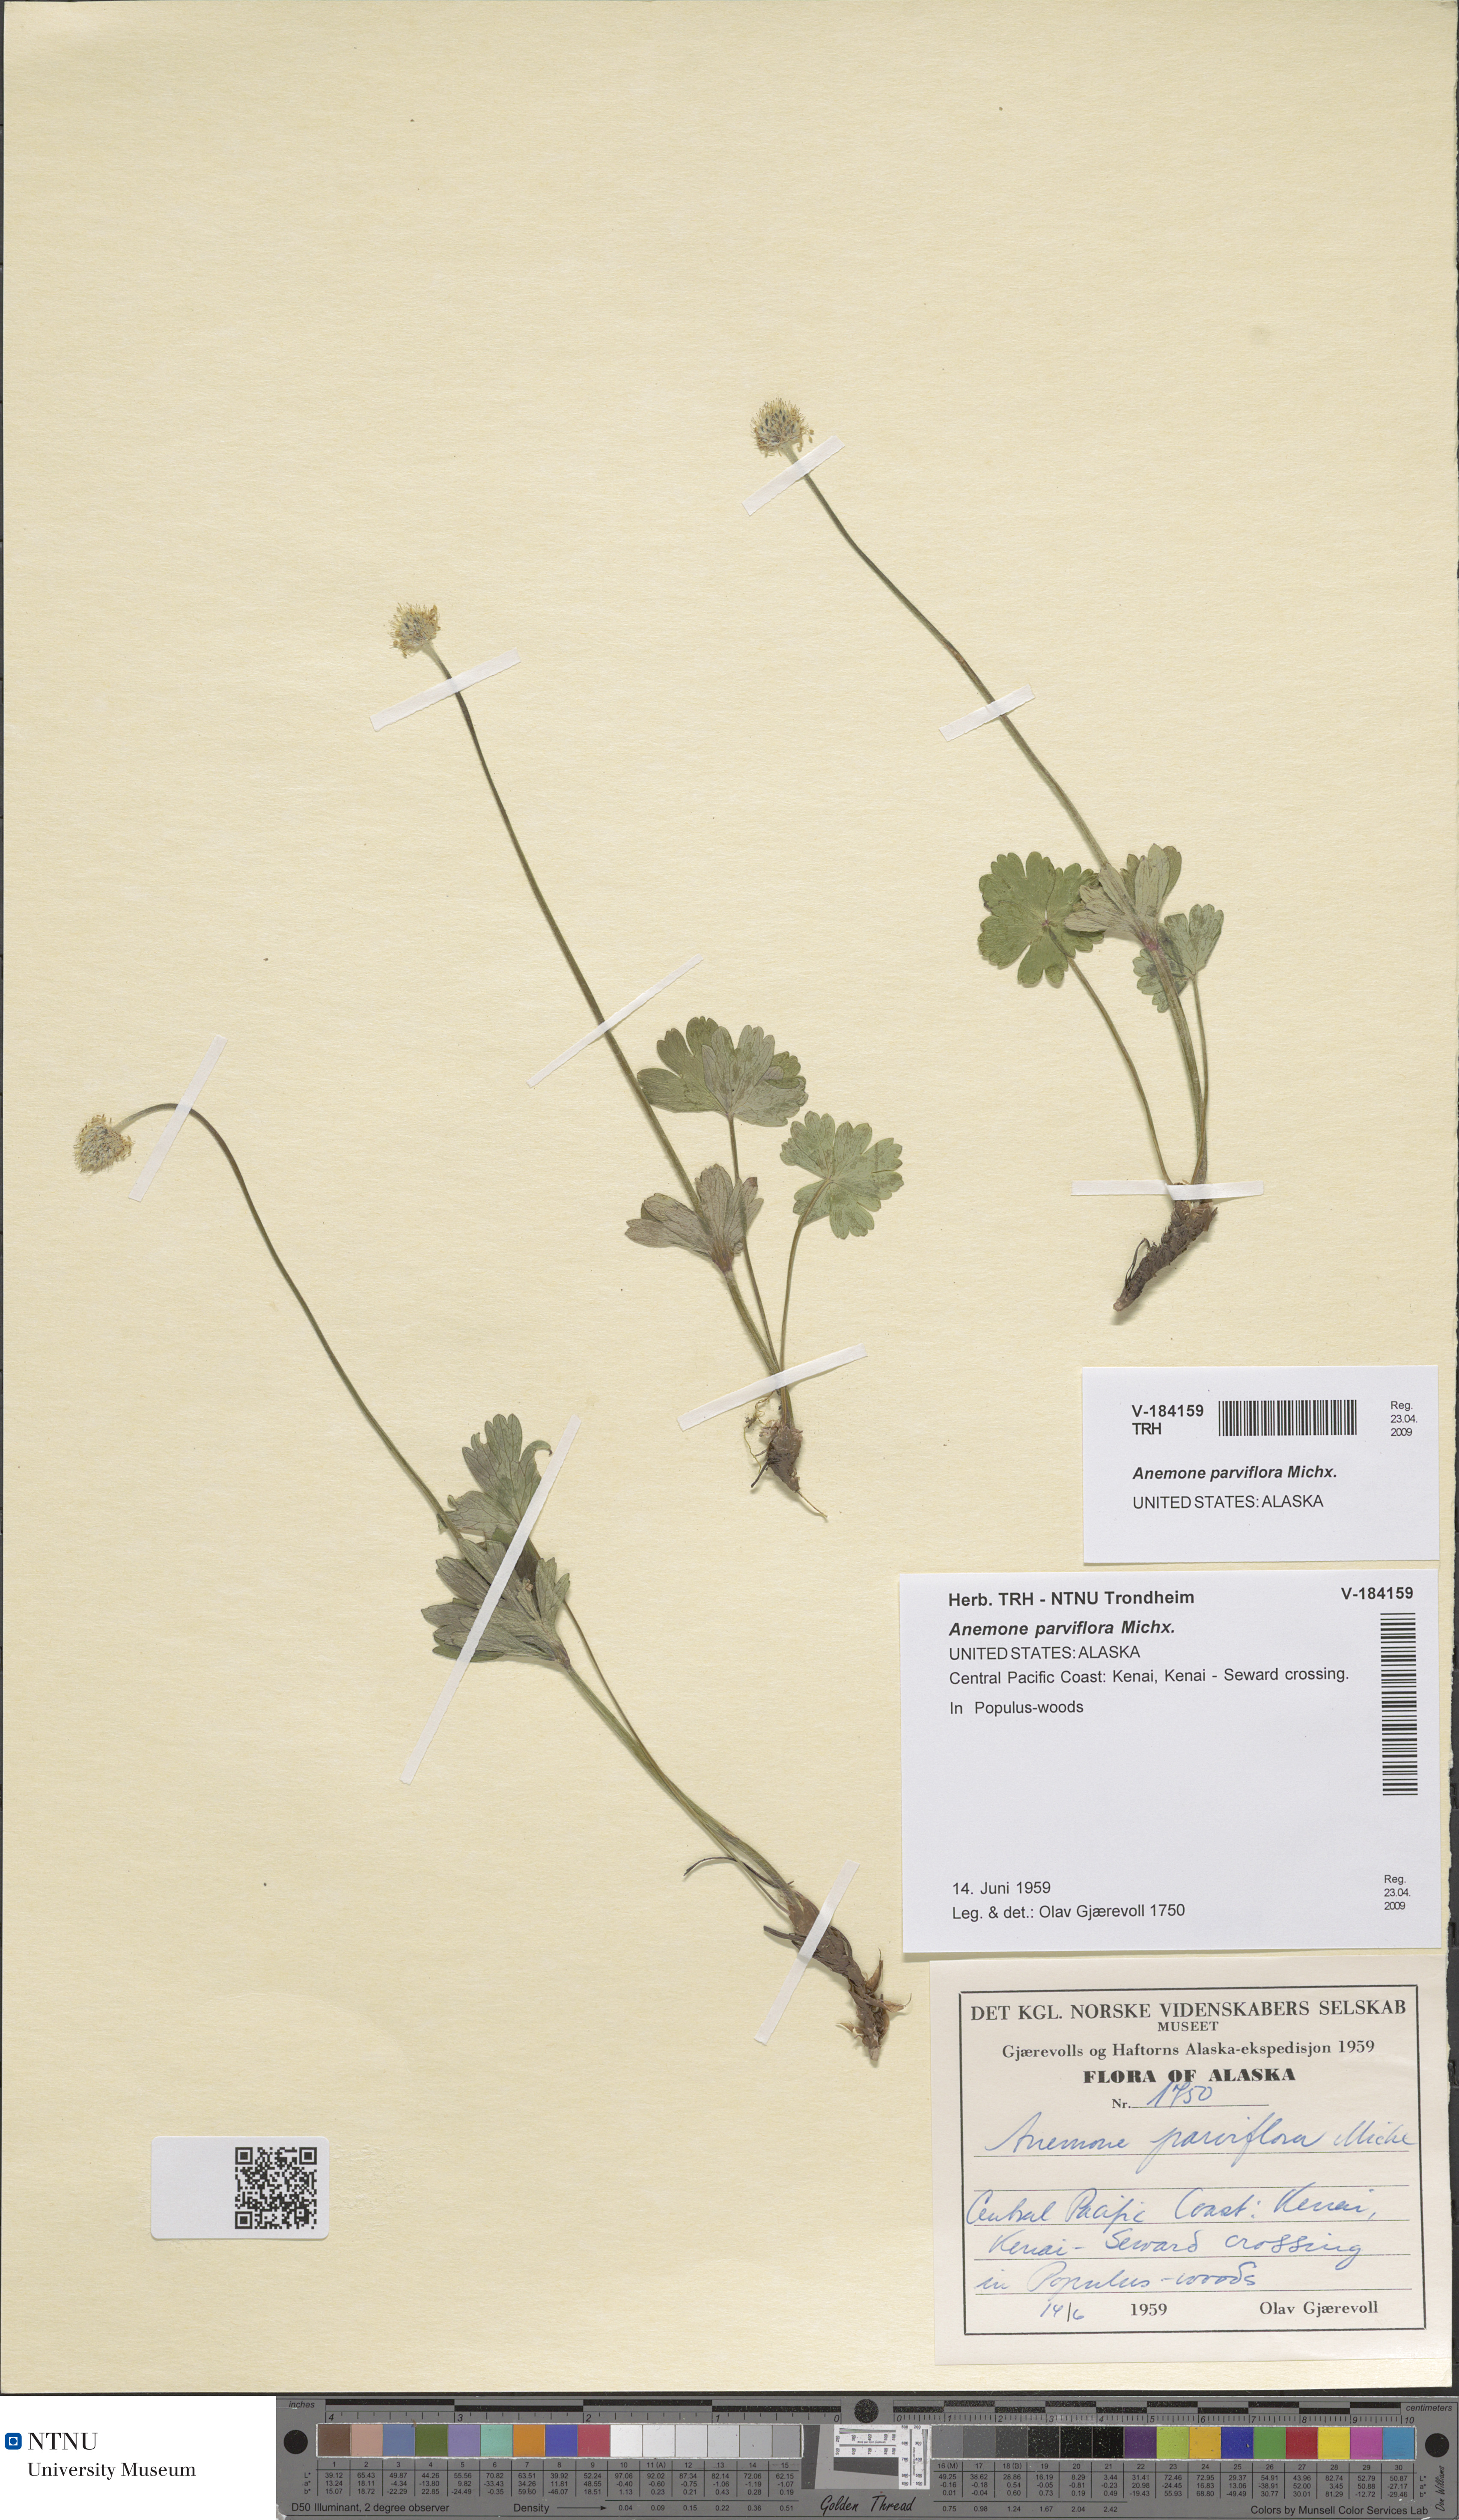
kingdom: Plantae
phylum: Tracheophyta
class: Magnoliopsida
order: Ranunculales
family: Ranunculaceae
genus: Anemone
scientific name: Anemone parviflora
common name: Northern anemone
